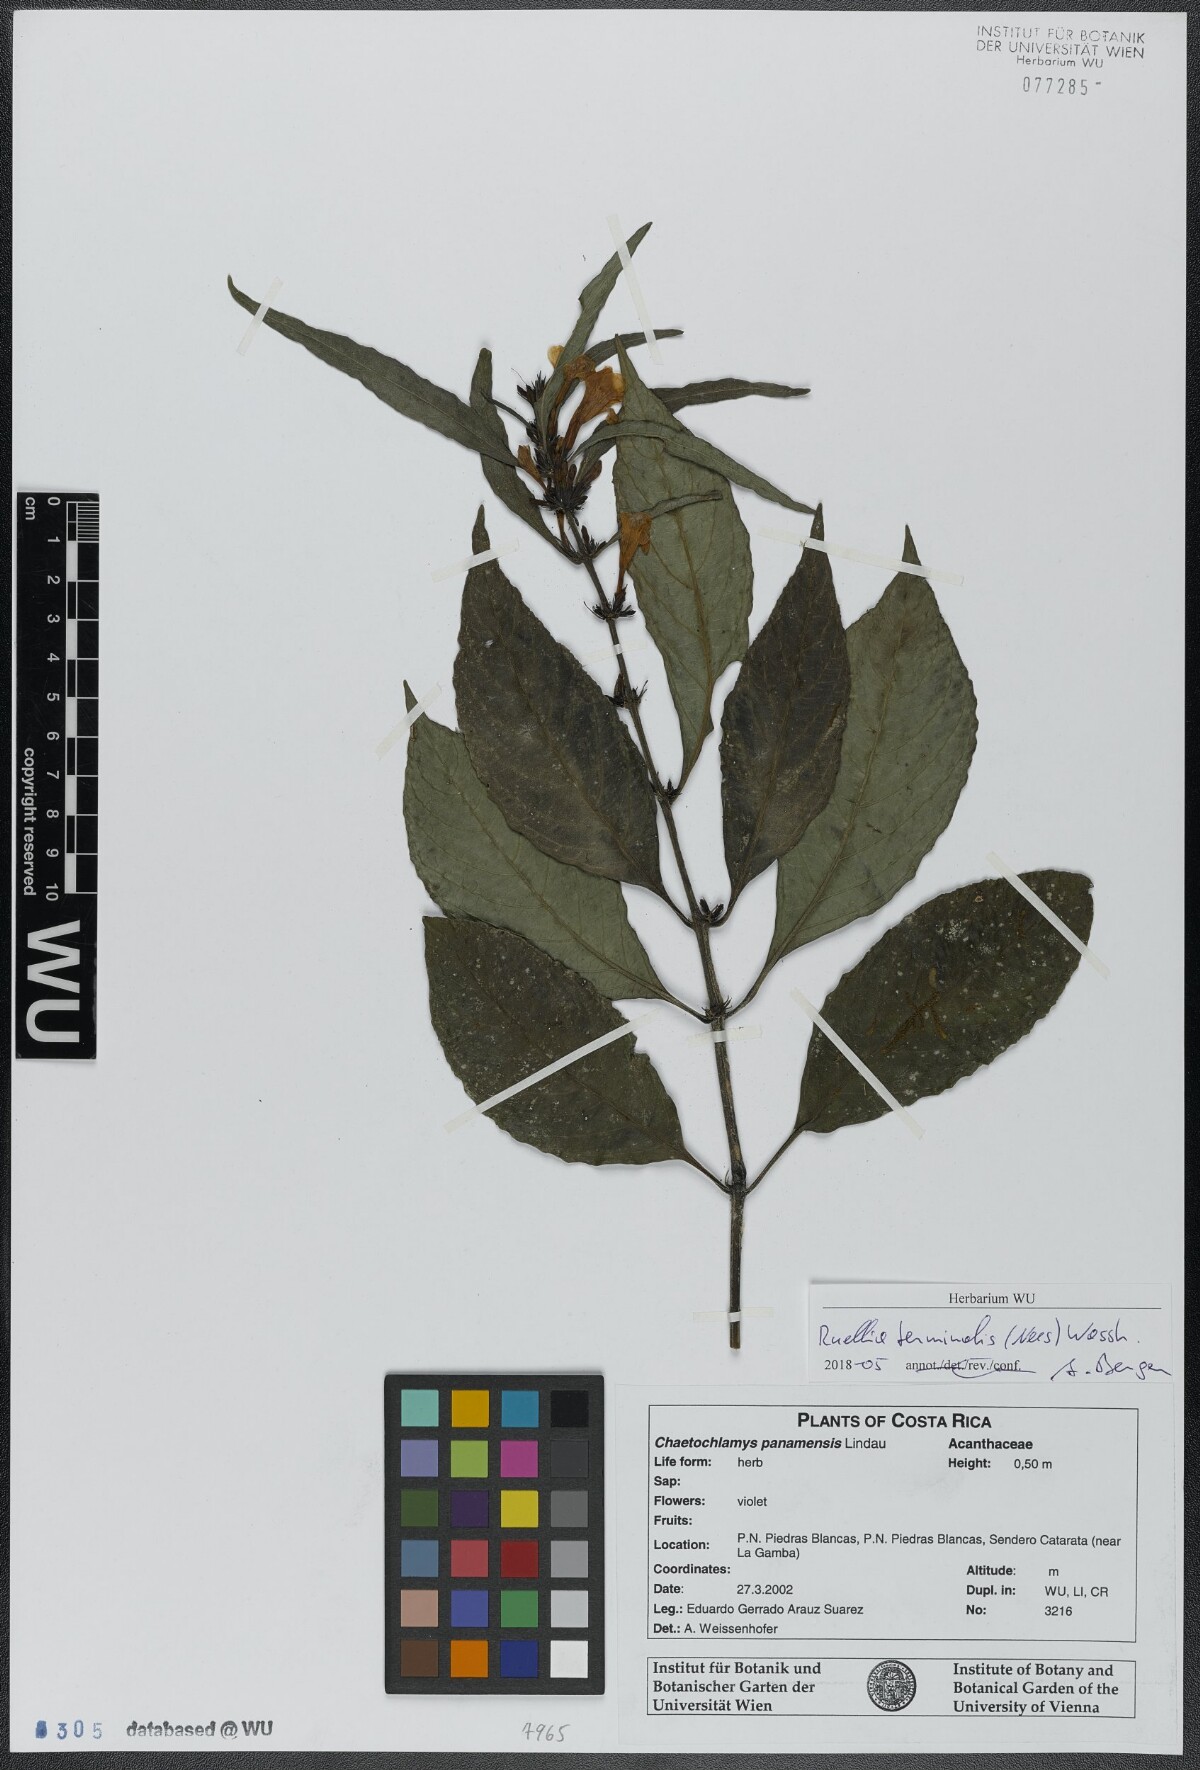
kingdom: Plantae
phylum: Tracheophyta
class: Magnoliopsida
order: Lamiales
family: Acanthaceae
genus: Ruellia
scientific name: Ruellia terminalis
